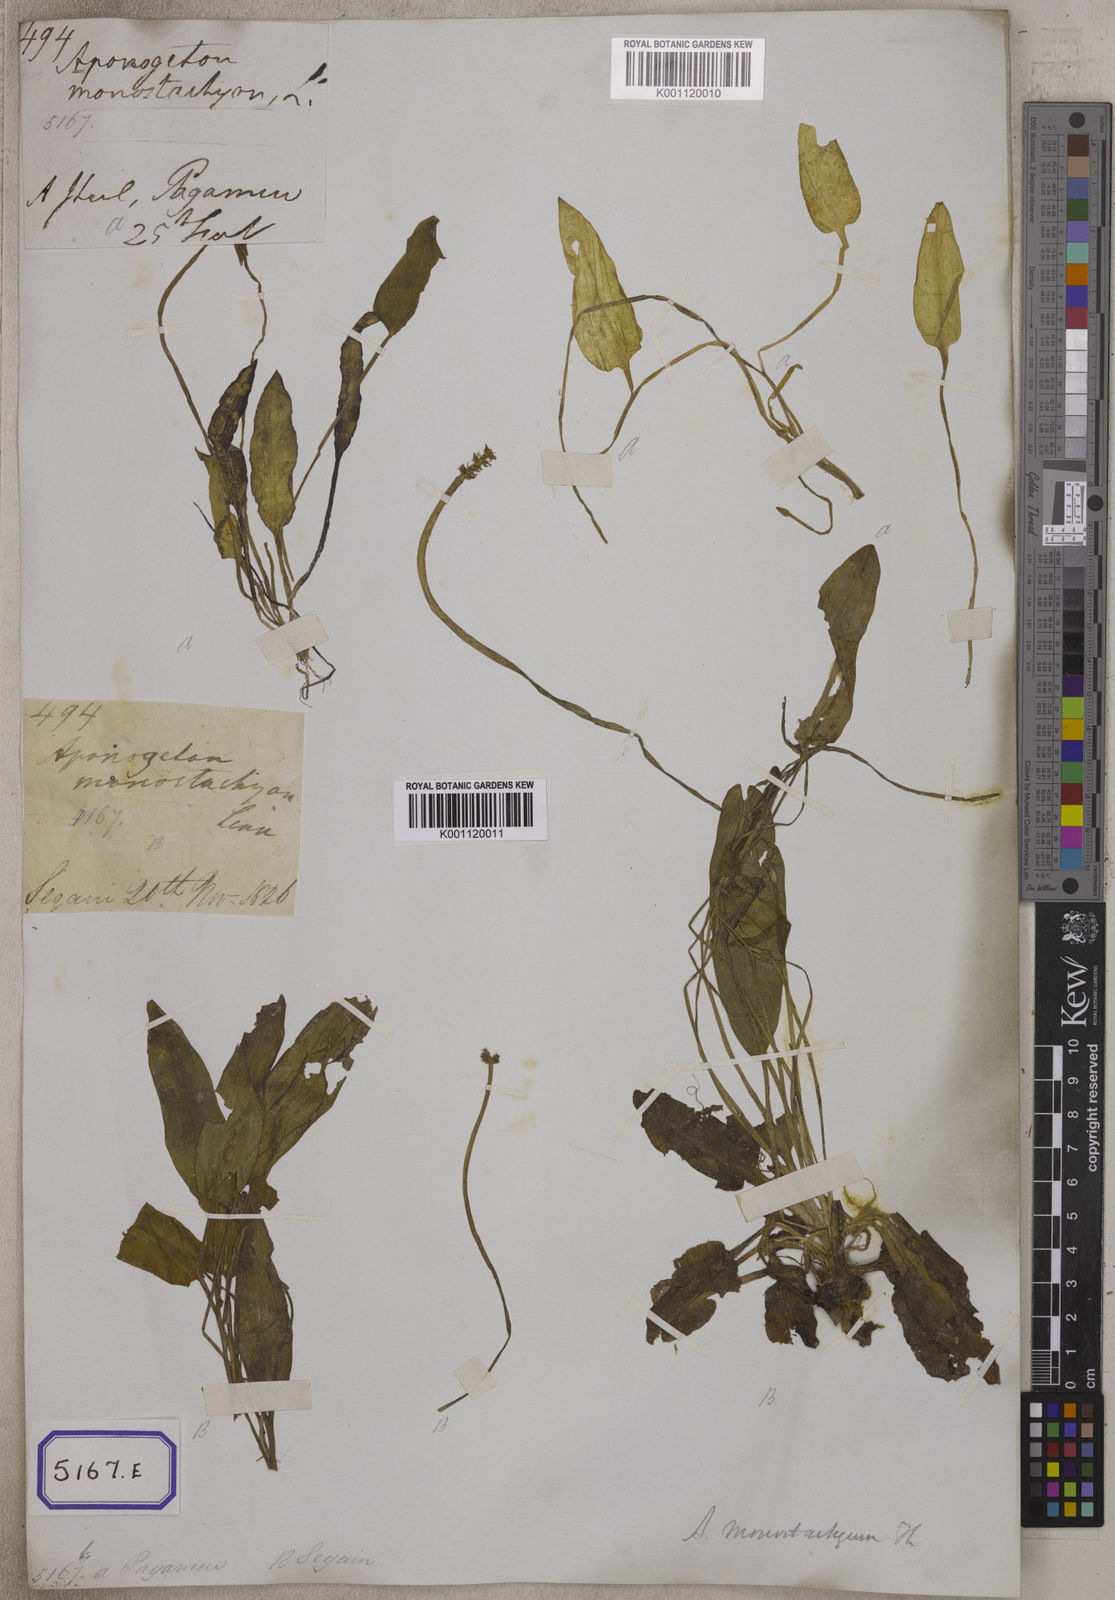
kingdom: Plantae
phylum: Tracheophyta
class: Liliopsida
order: Alismatales
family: Aponogetonaceae
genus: Aponogeton
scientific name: Aponogeton
